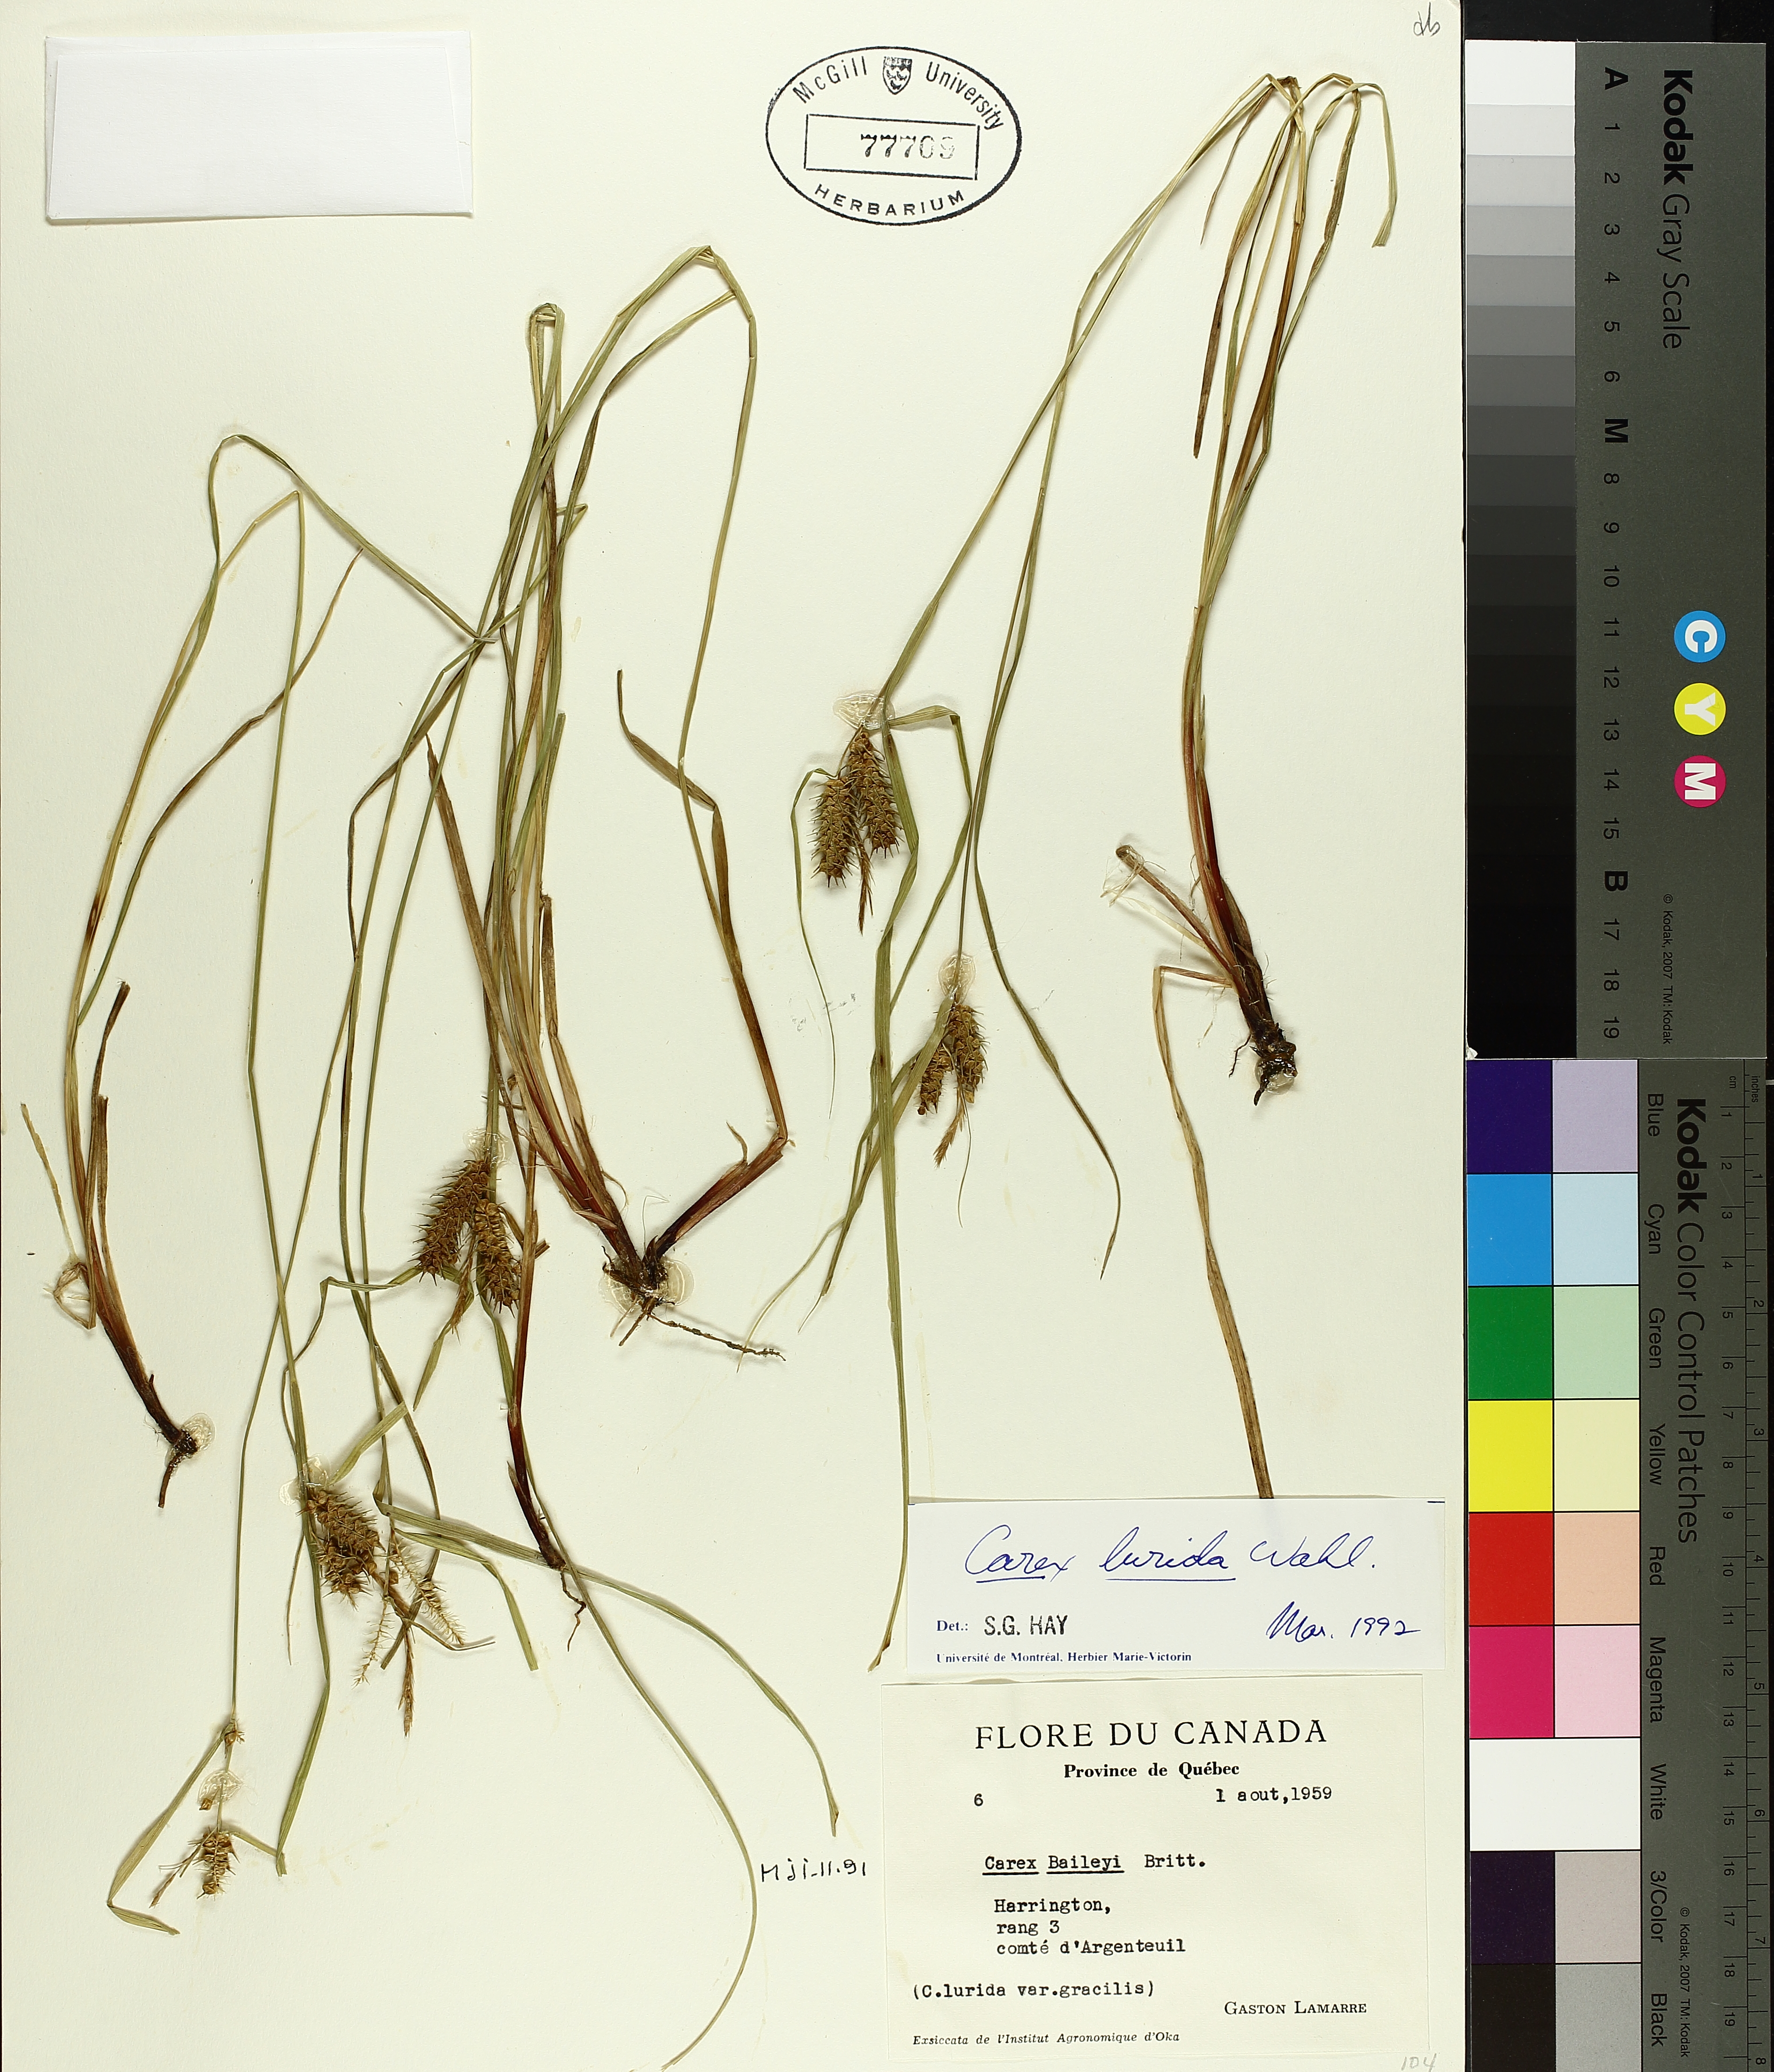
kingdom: Plantae
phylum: Tracheophyta
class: Liliopsida
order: Poales
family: Cyperaceae
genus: Carex
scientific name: Carex baileyi
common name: Bailey's sedge
